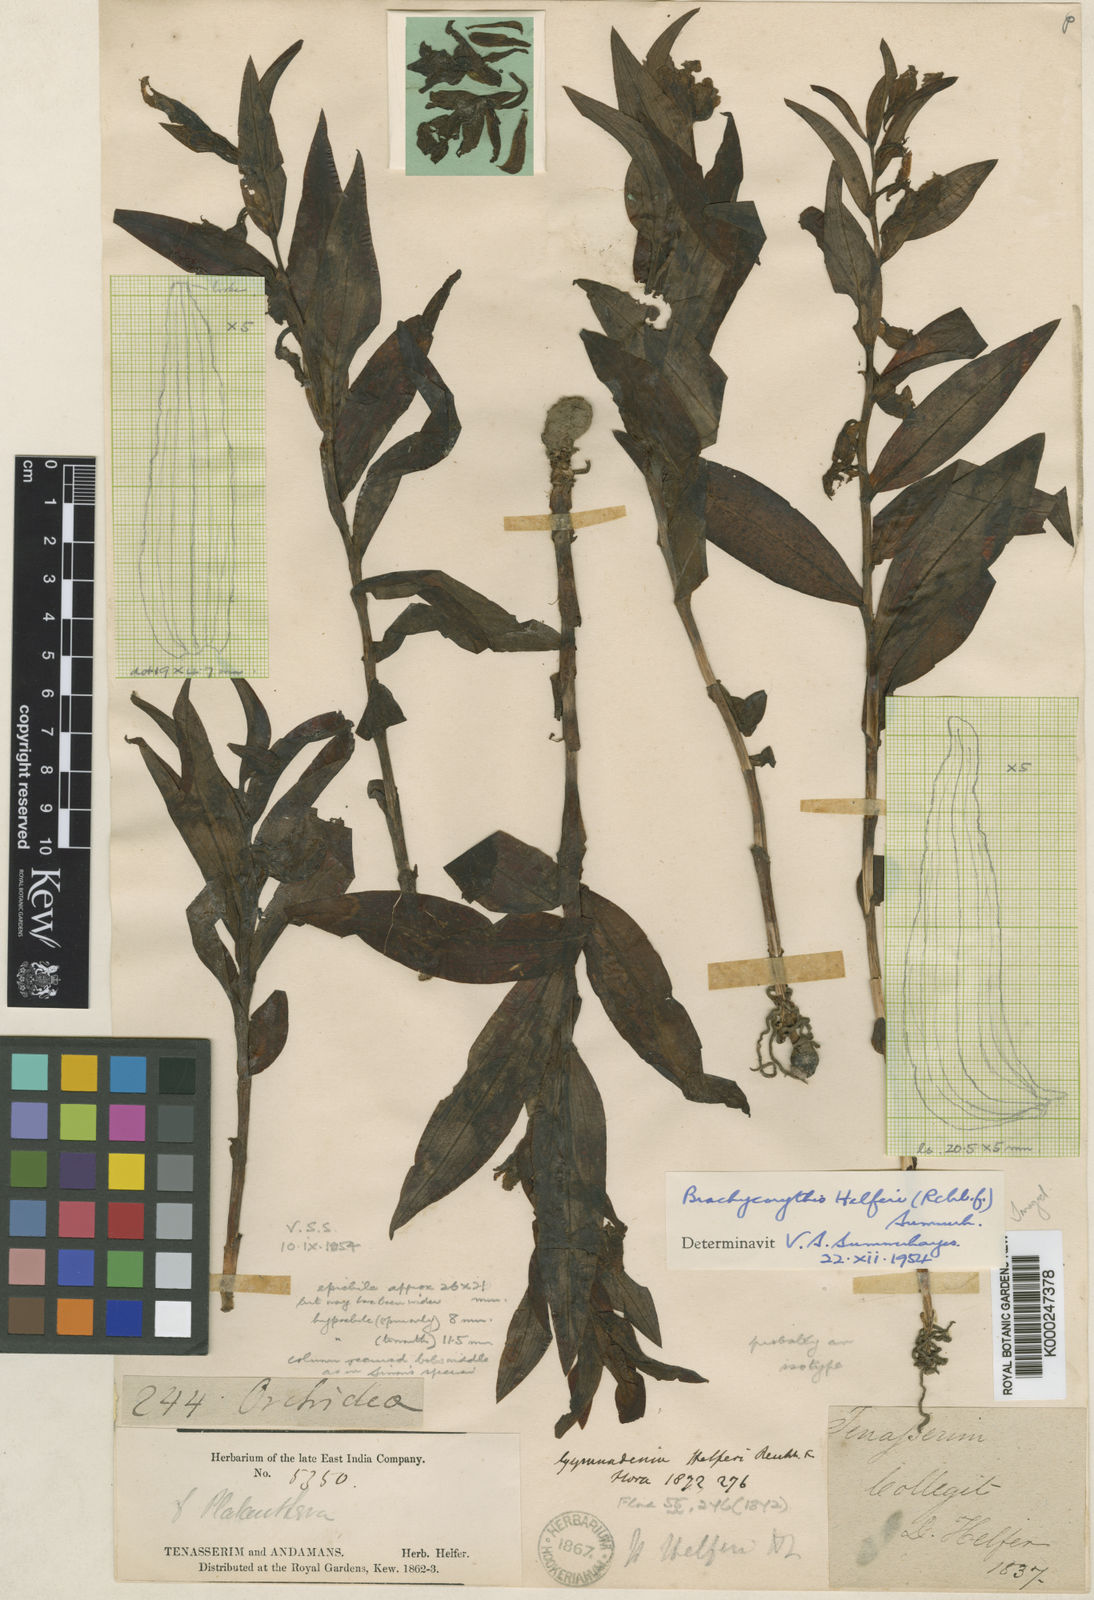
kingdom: Plantae
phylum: Tracheophyta
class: Liliopsida
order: Asparagales
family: Orchidaceae
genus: Brachycorythis
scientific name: Brachycorythis helferi
